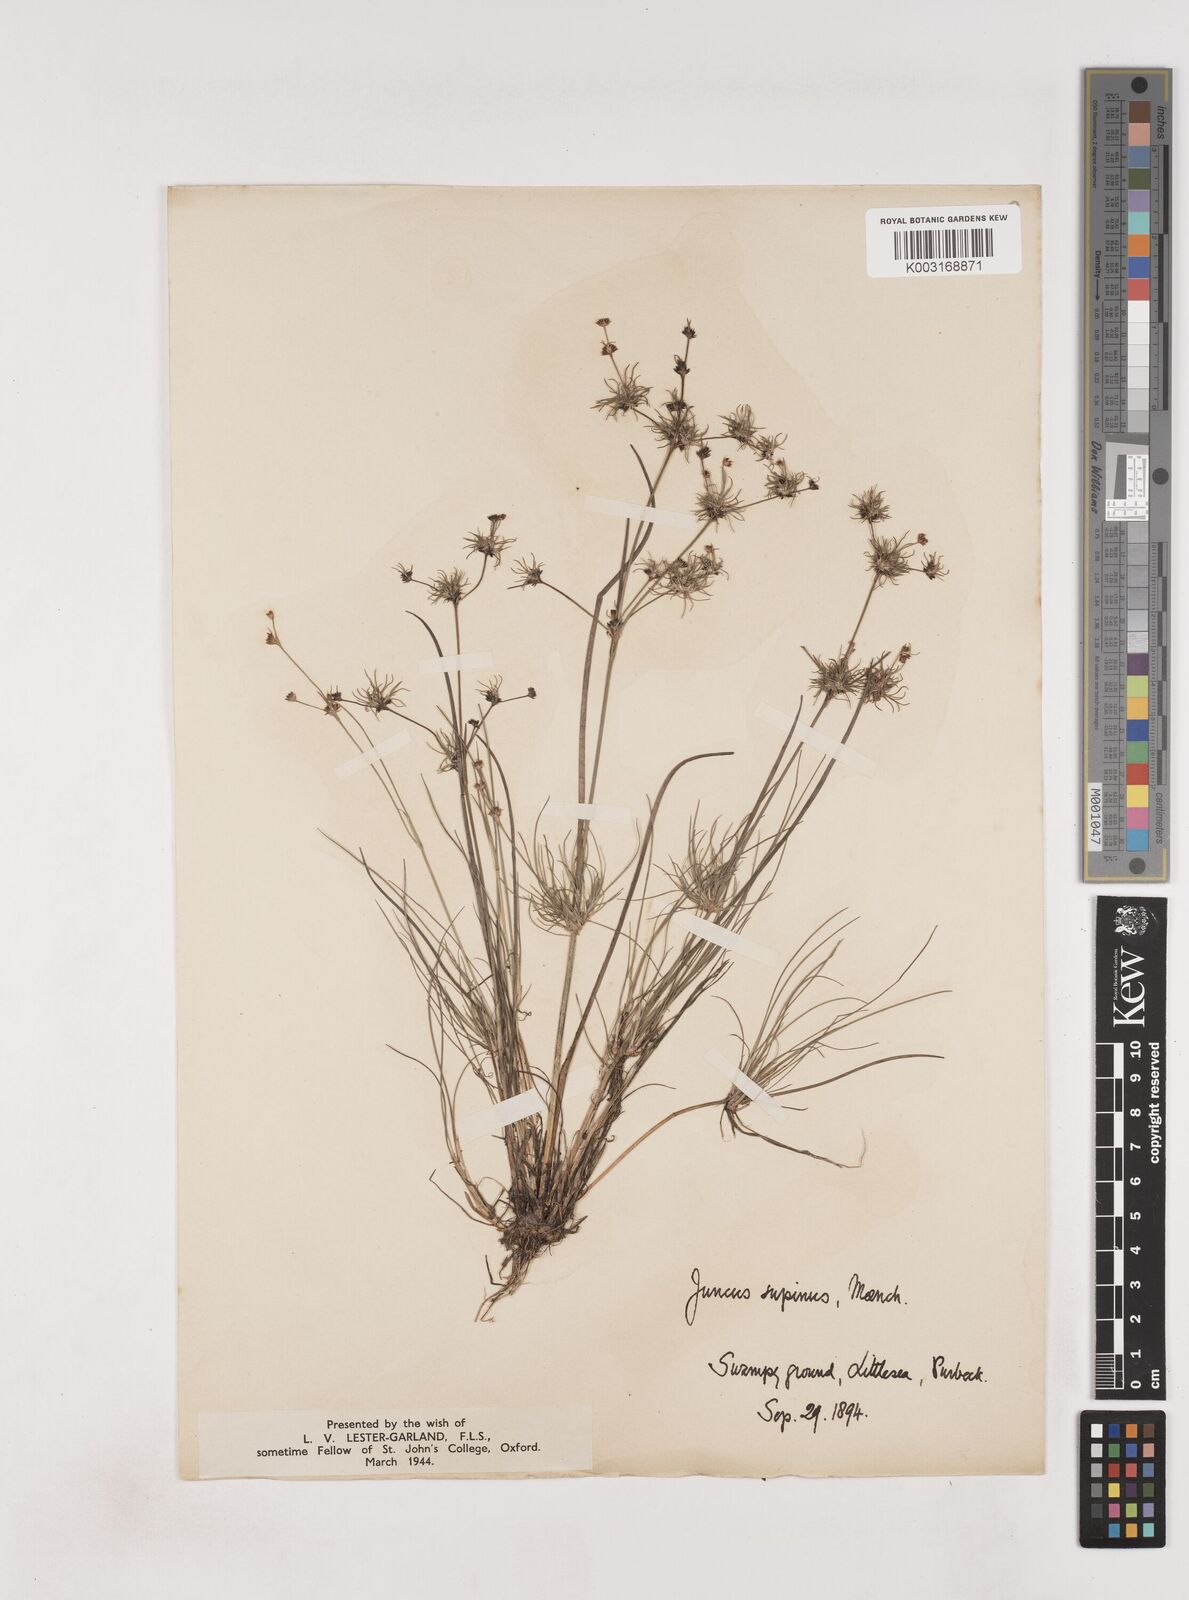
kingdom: Plantae
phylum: Tracheophyta
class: Liliopsida
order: Poales
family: Juncaceae
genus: Juncus
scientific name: Juncus bulbosus
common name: Bulbous rush
